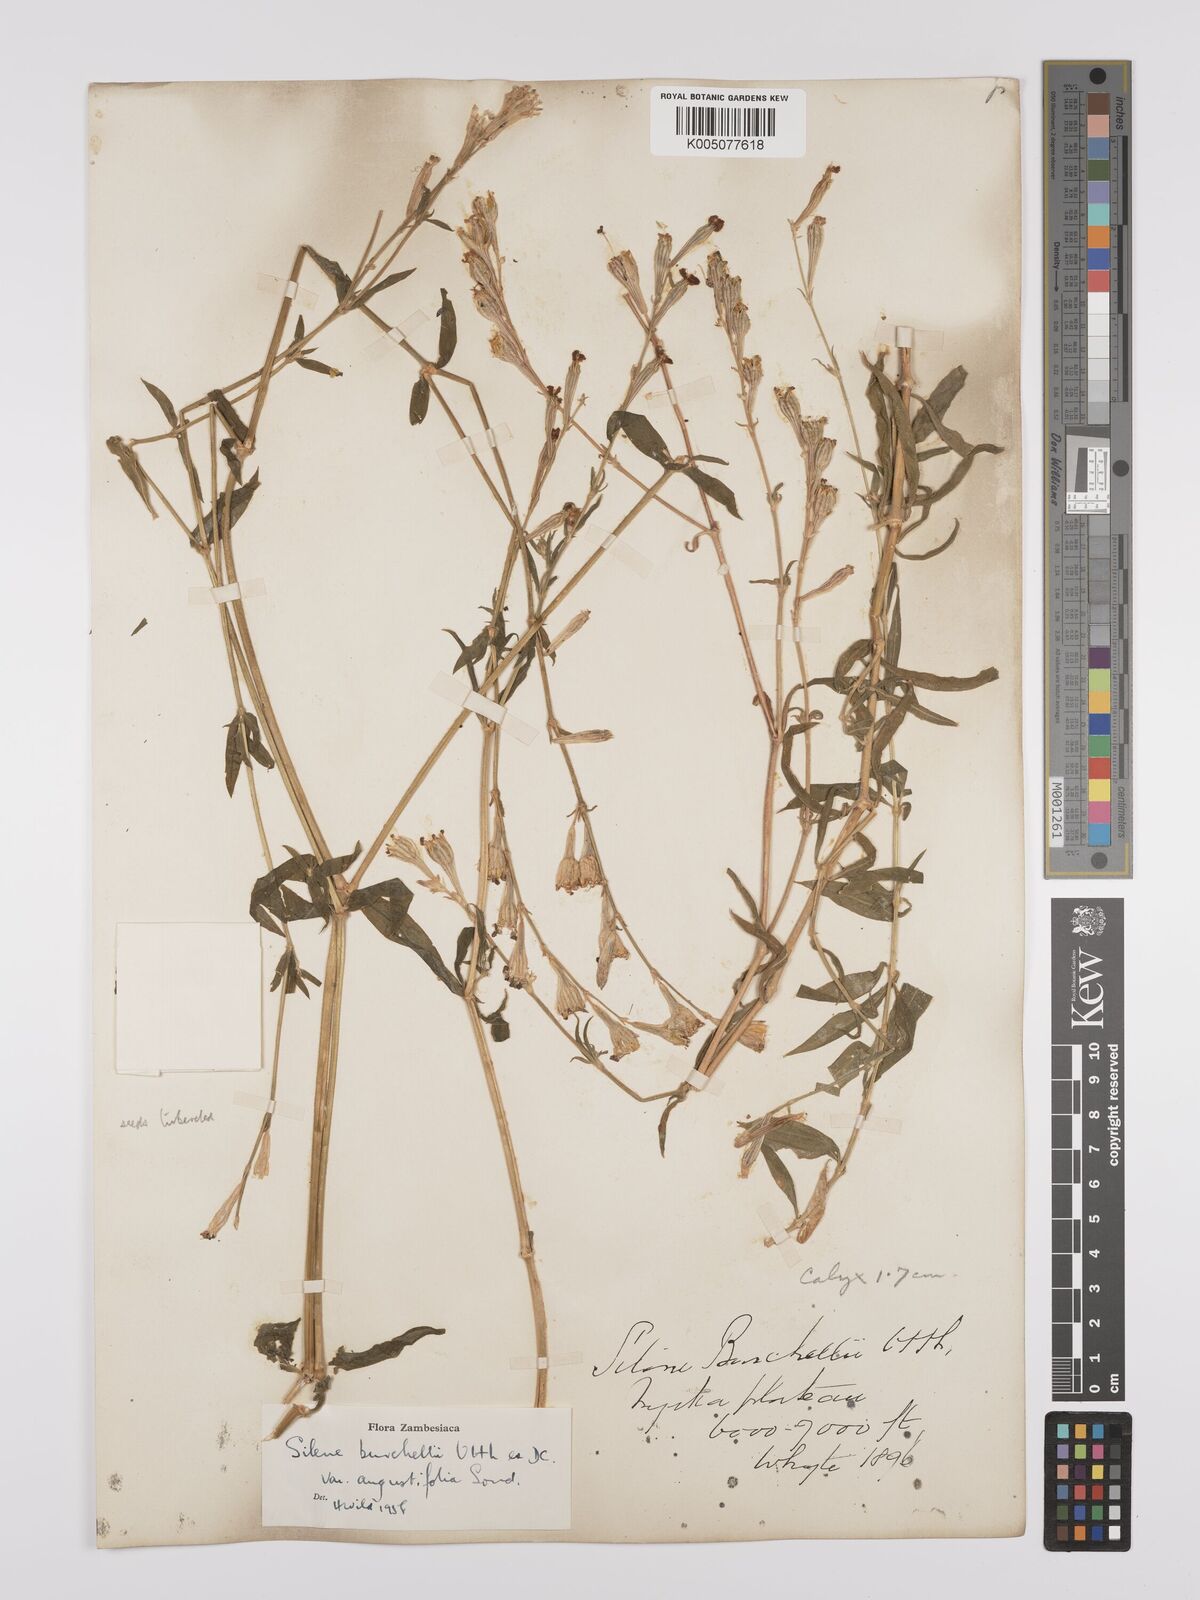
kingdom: Plantae
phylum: Tracheophyta
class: Magnoliopsida
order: Caryophyllales
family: Caryophyllaceae
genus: Silene
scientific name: Silene burchellii
